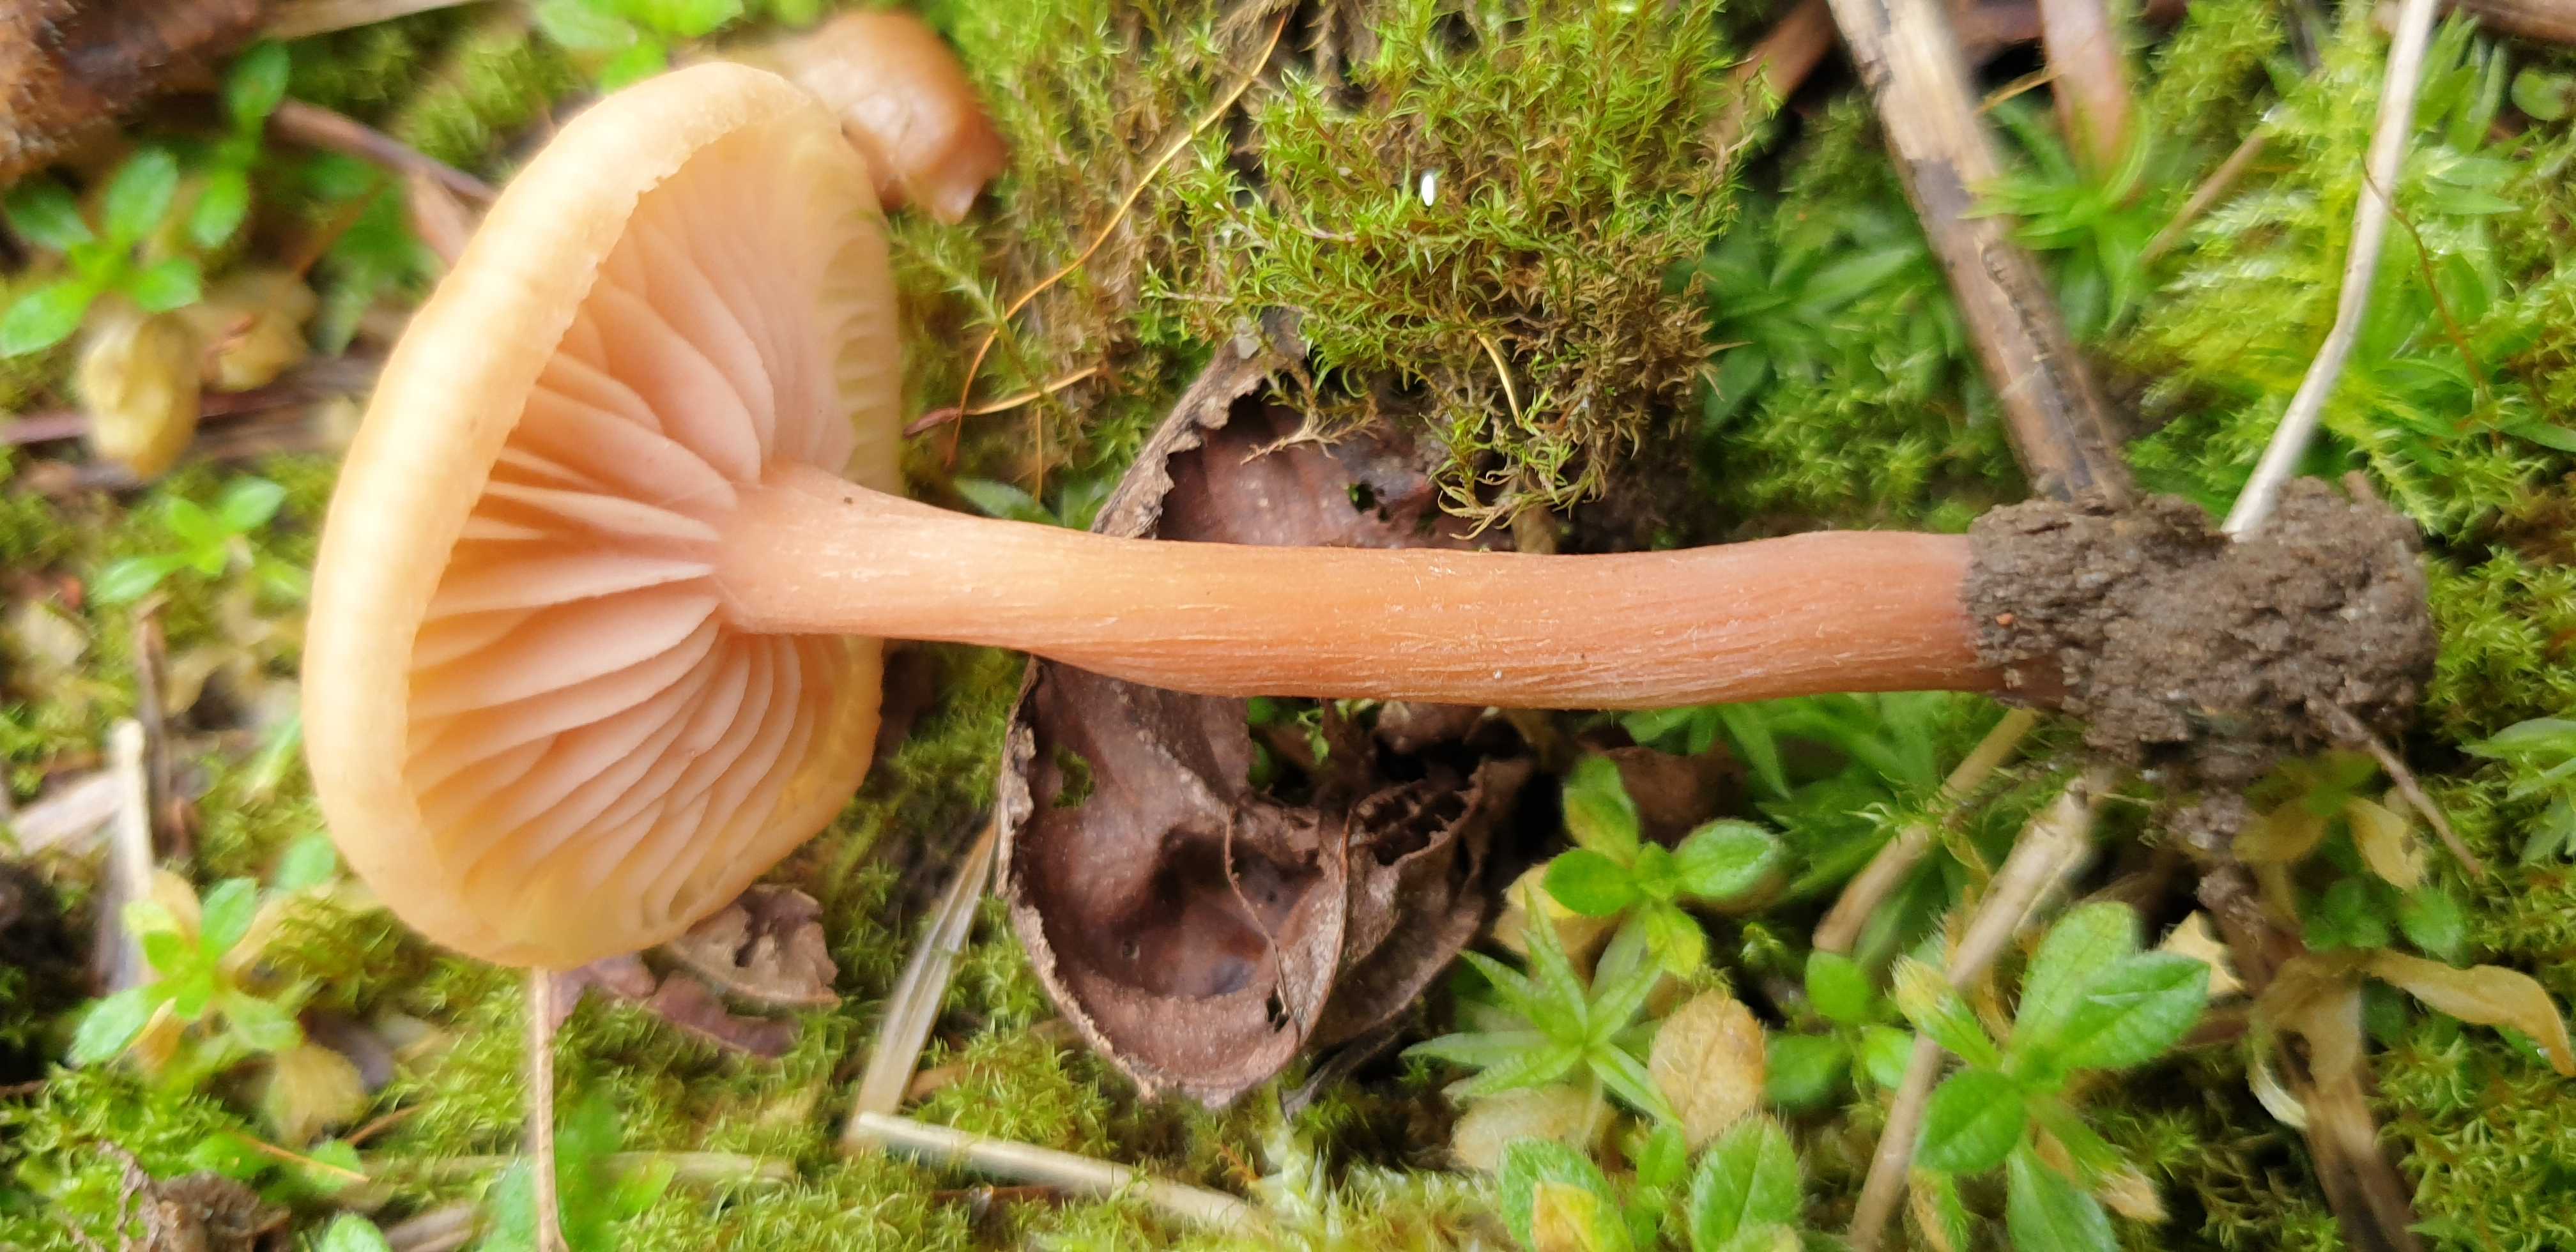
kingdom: Fungi
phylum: Basidiomycota
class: Agaricomycetes
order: Agaricales
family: Hydnangiaceae
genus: Laccaria
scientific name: Laccaria laccata
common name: rød ametysthat
